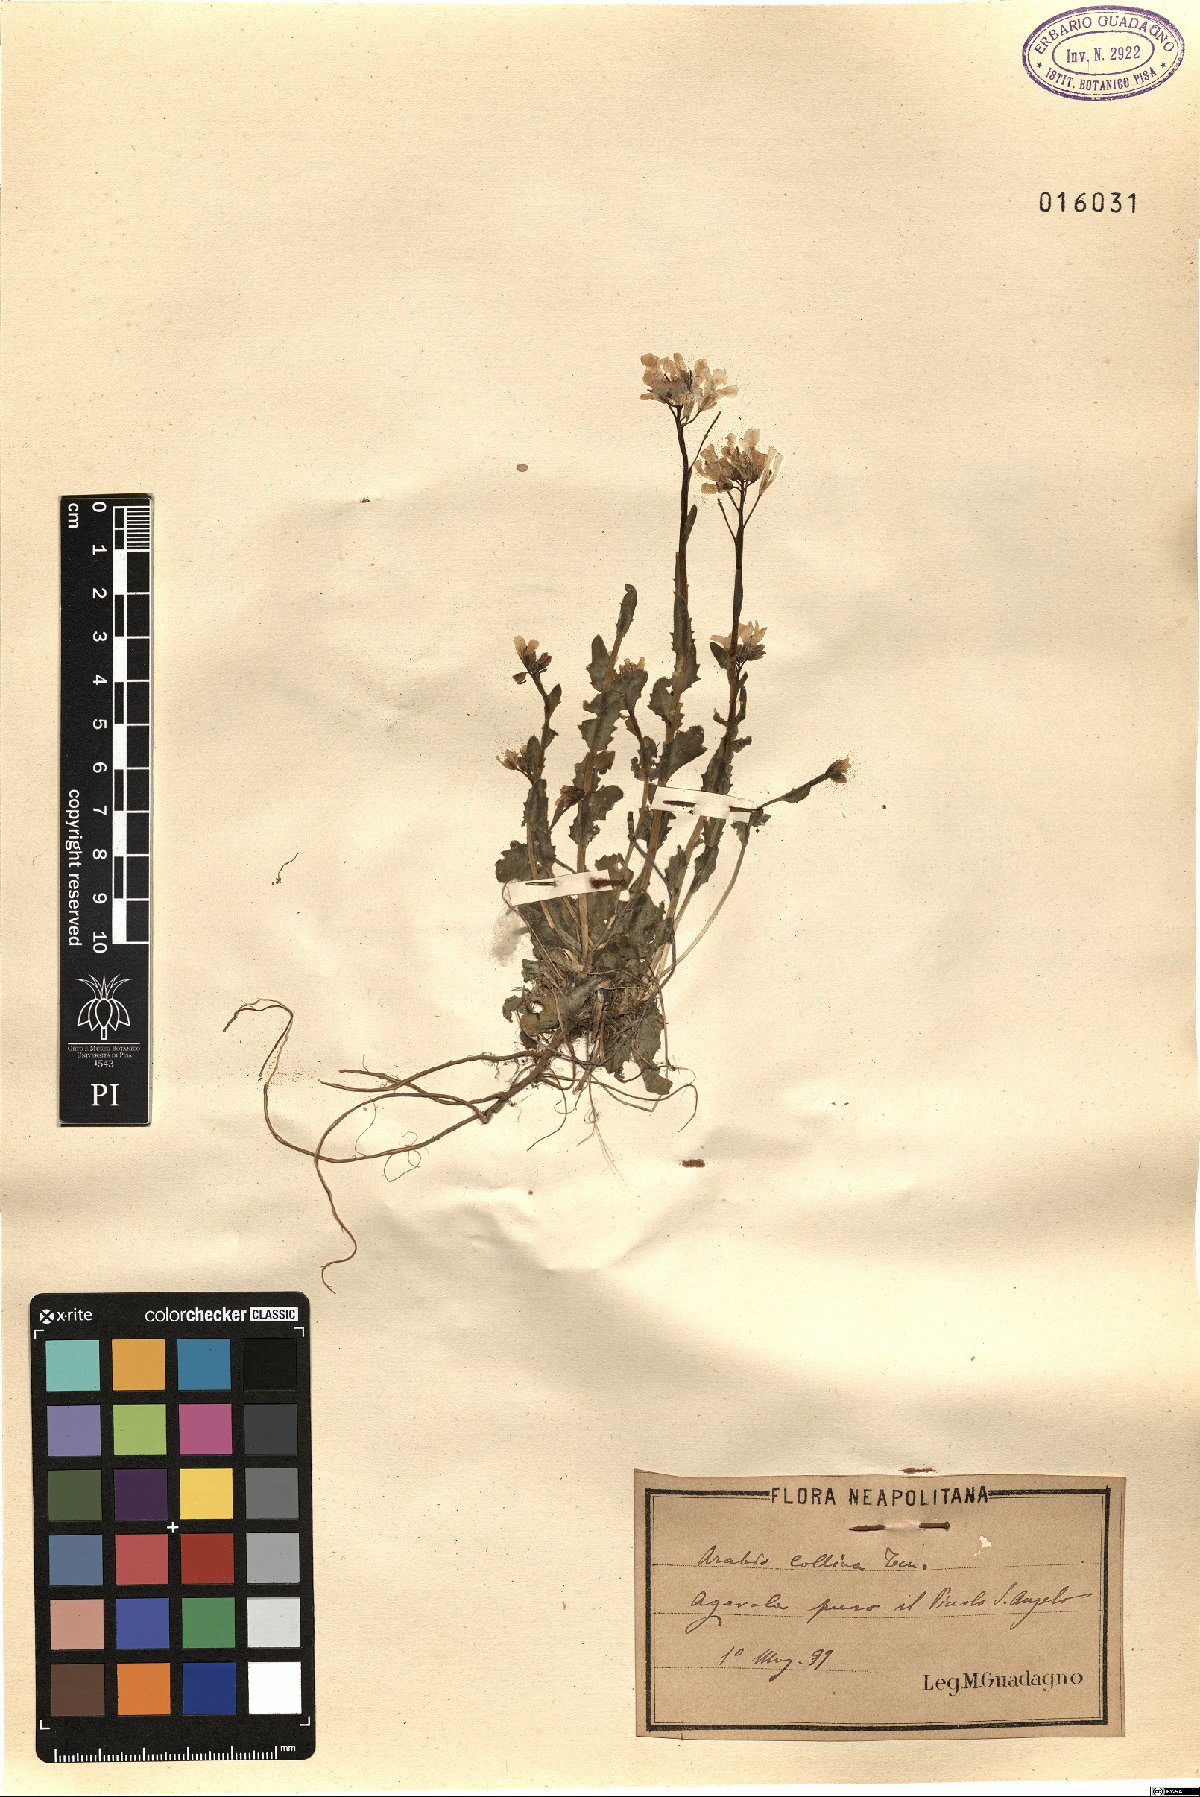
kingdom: Plantae
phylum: Tracheophyta
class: Magnoliopsida
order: Brassicales
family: Brassicaceae
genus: Arabis
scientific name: Arabis collina
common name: Rosy cress
